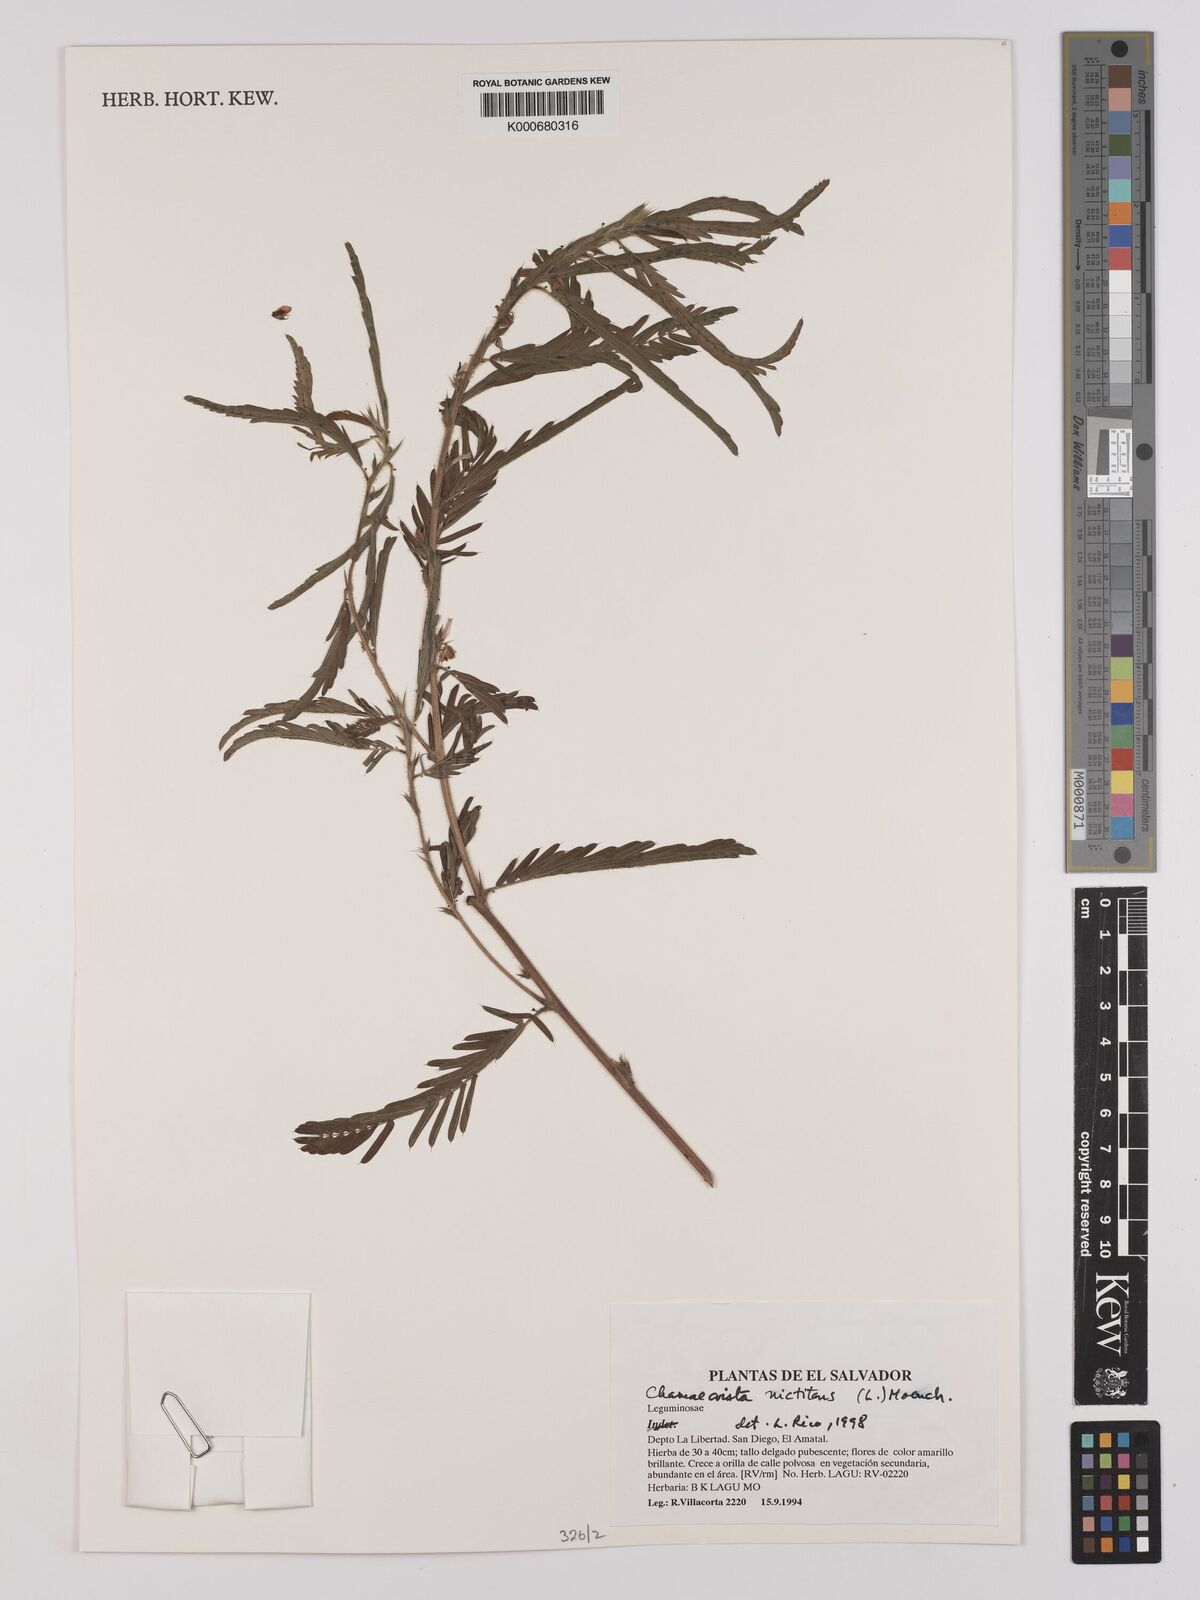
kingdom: Plantae
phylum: Tracheophyta
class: Magnoliopsida
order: Fabales
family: Fabaceae
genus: Chamaecrista
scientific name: Chamaecrista nictitans
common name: Sensitive cassia
